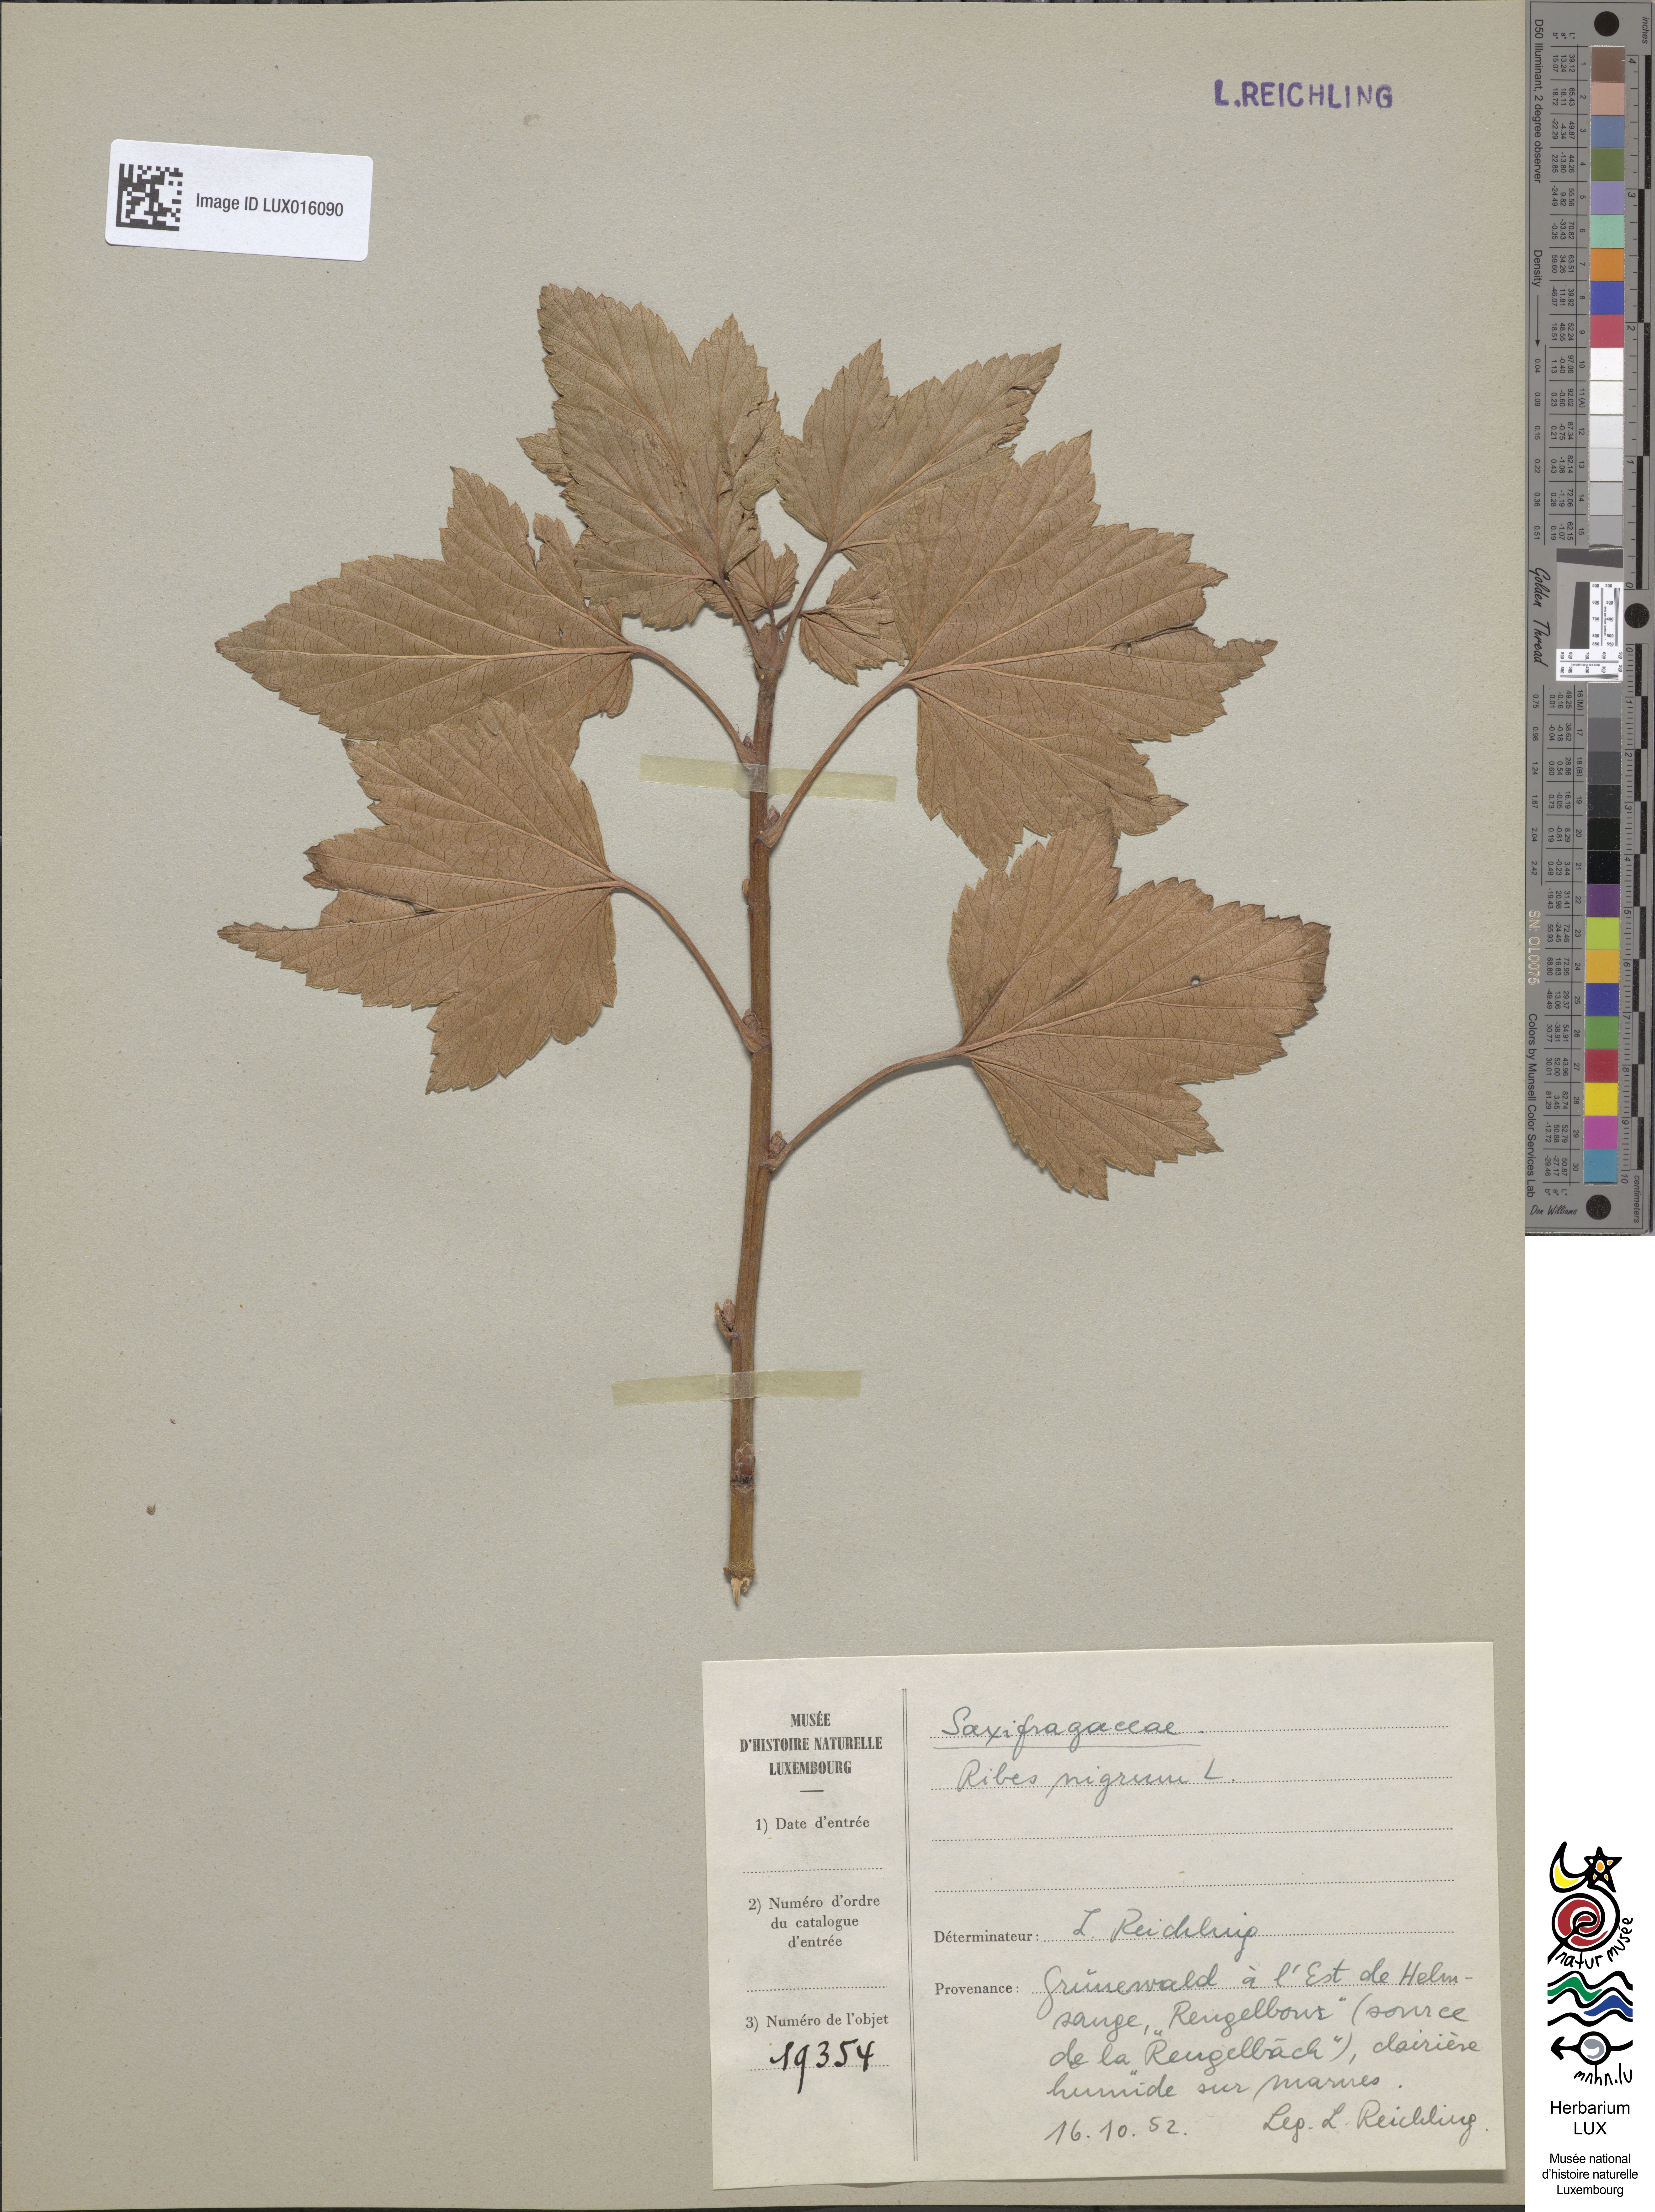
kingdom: Plantae
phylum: Tracheophyta
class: Magnoliopsida
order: Saxifragales
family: Grossulariaceae
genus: Ribes
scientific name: Ribes nigrum
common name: Black currant
